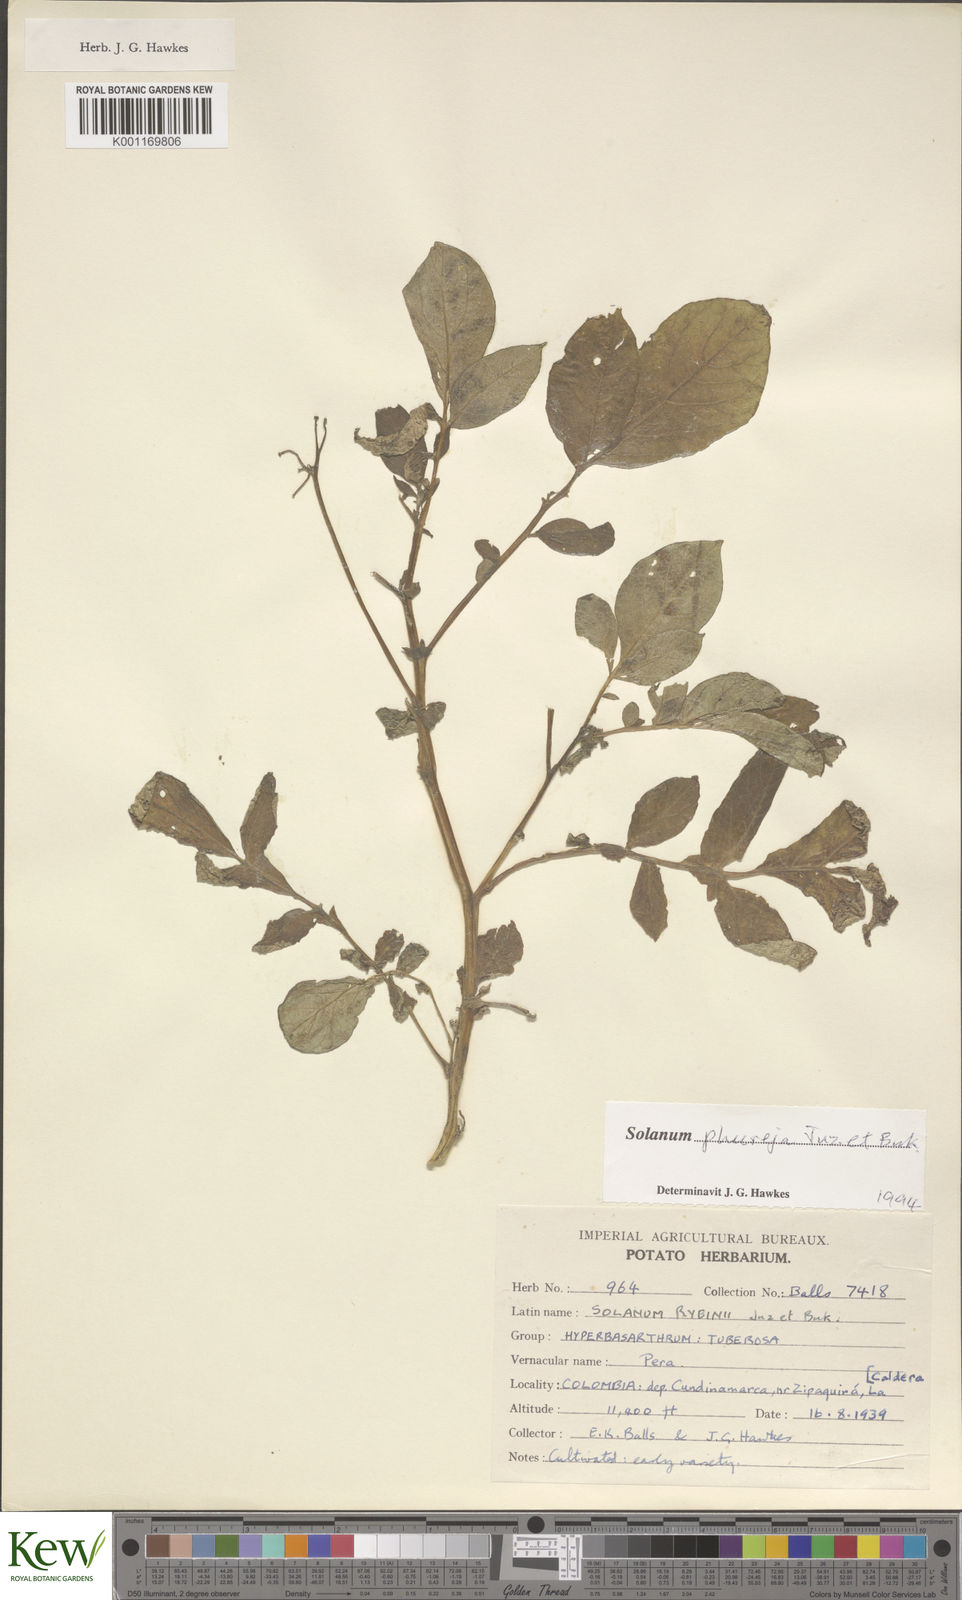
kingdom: Plantae
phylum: Tracheophyta
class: Magnoliopsida
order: Solanales
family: Solanaceae
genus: Solanum
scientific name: Solanum tuberosum
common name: Potato
